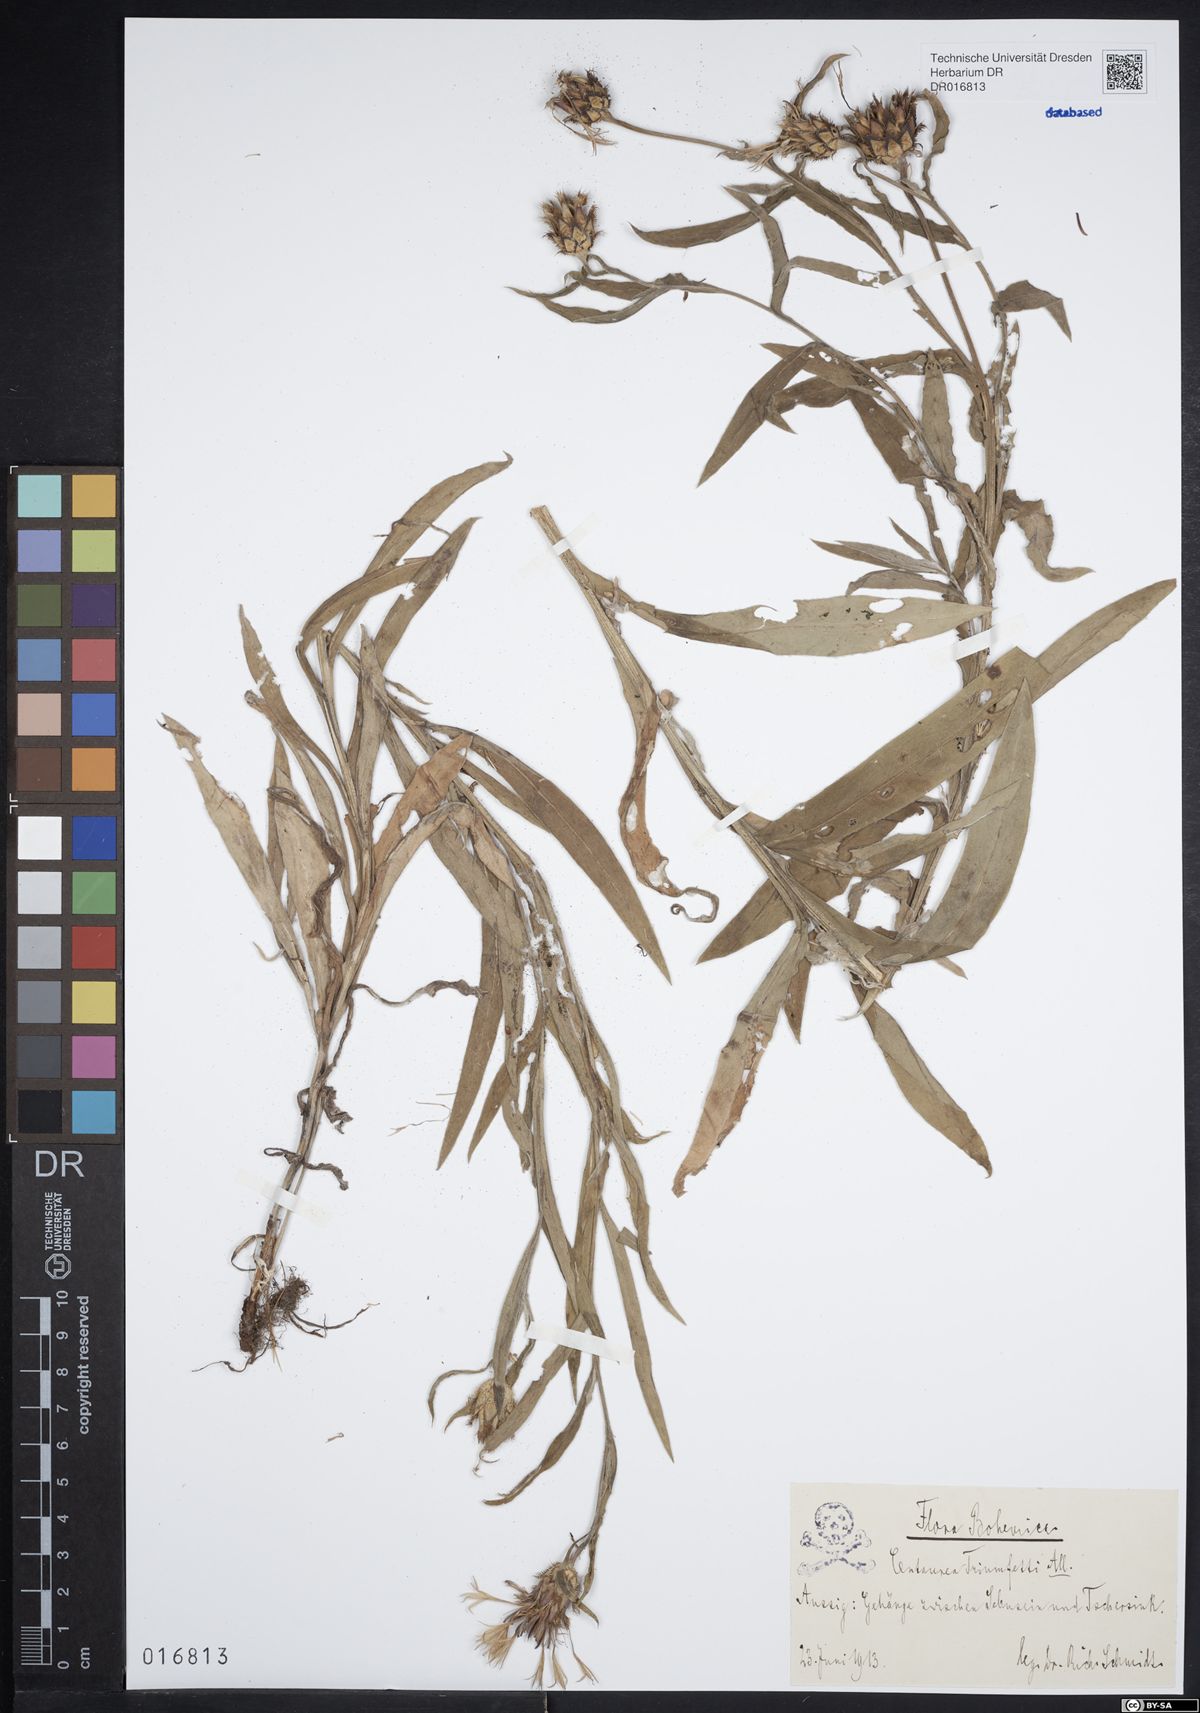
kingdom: Plantae
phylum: Tracheophyta
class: Magnoliopsida
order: Asterales
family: Asteraceae
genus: Centaurea
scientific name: Centaurea triumfettii
